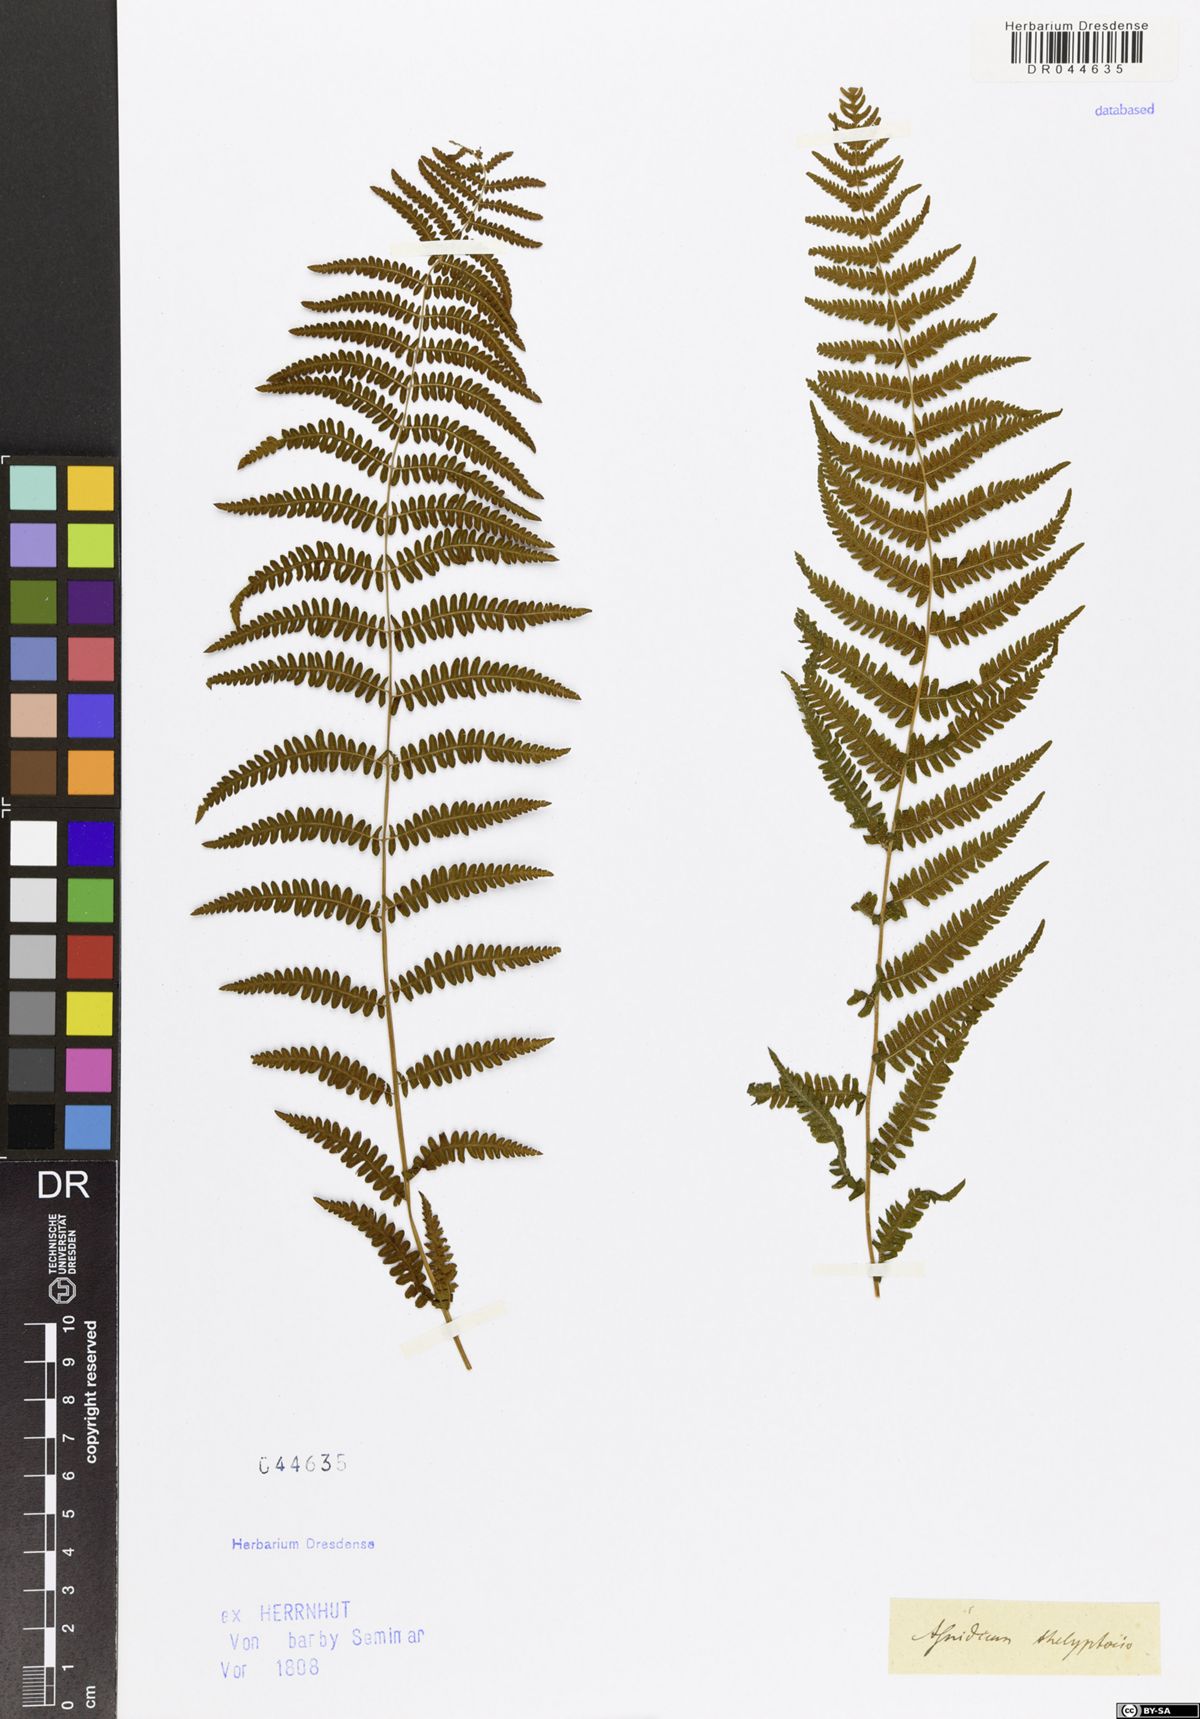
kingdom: Plantae
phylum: Tracheophyta
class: Polypodiopsida
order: Polypodiales
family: Thelypteridaceae
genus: Thelypteris
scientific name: Thelypteris palustris
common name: Marsh fern
